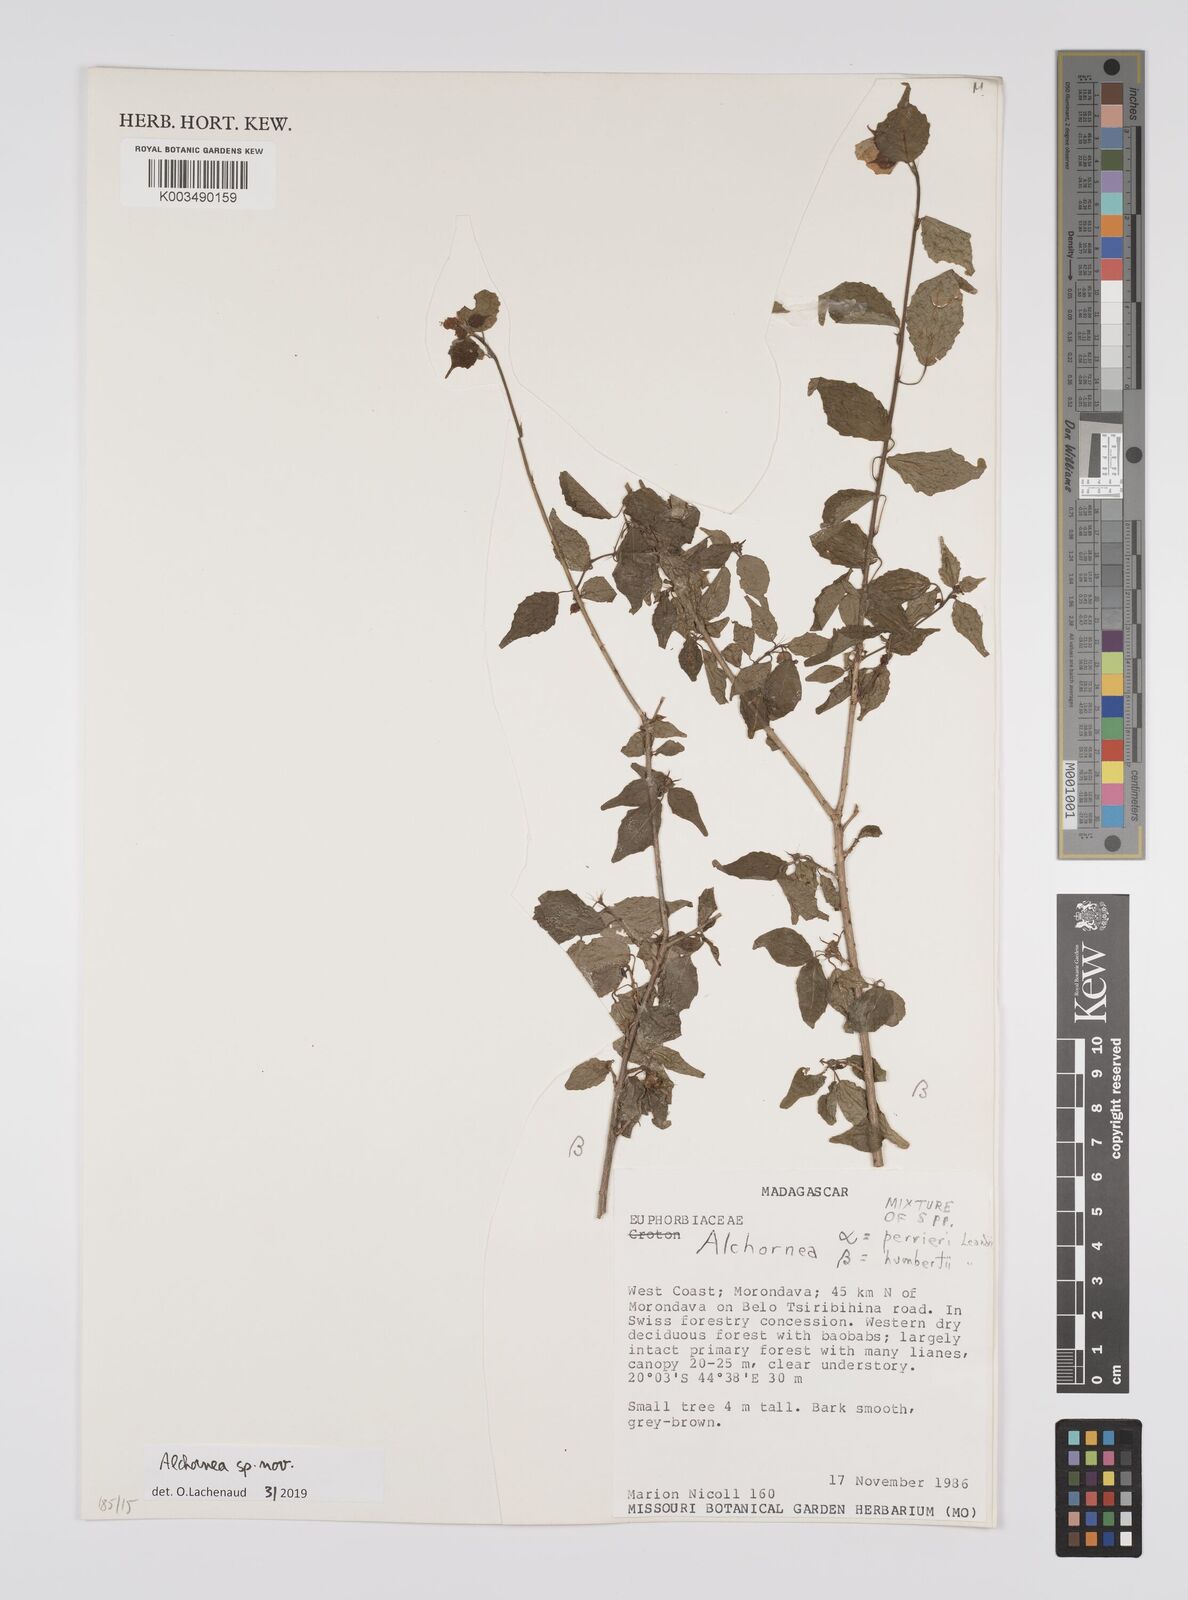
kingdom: Plantae
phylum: Tracheophyta
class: Magnoliopsida
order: Malpighiales
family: Euphorbiaceae
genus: Alchornea
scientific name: Alchornea
